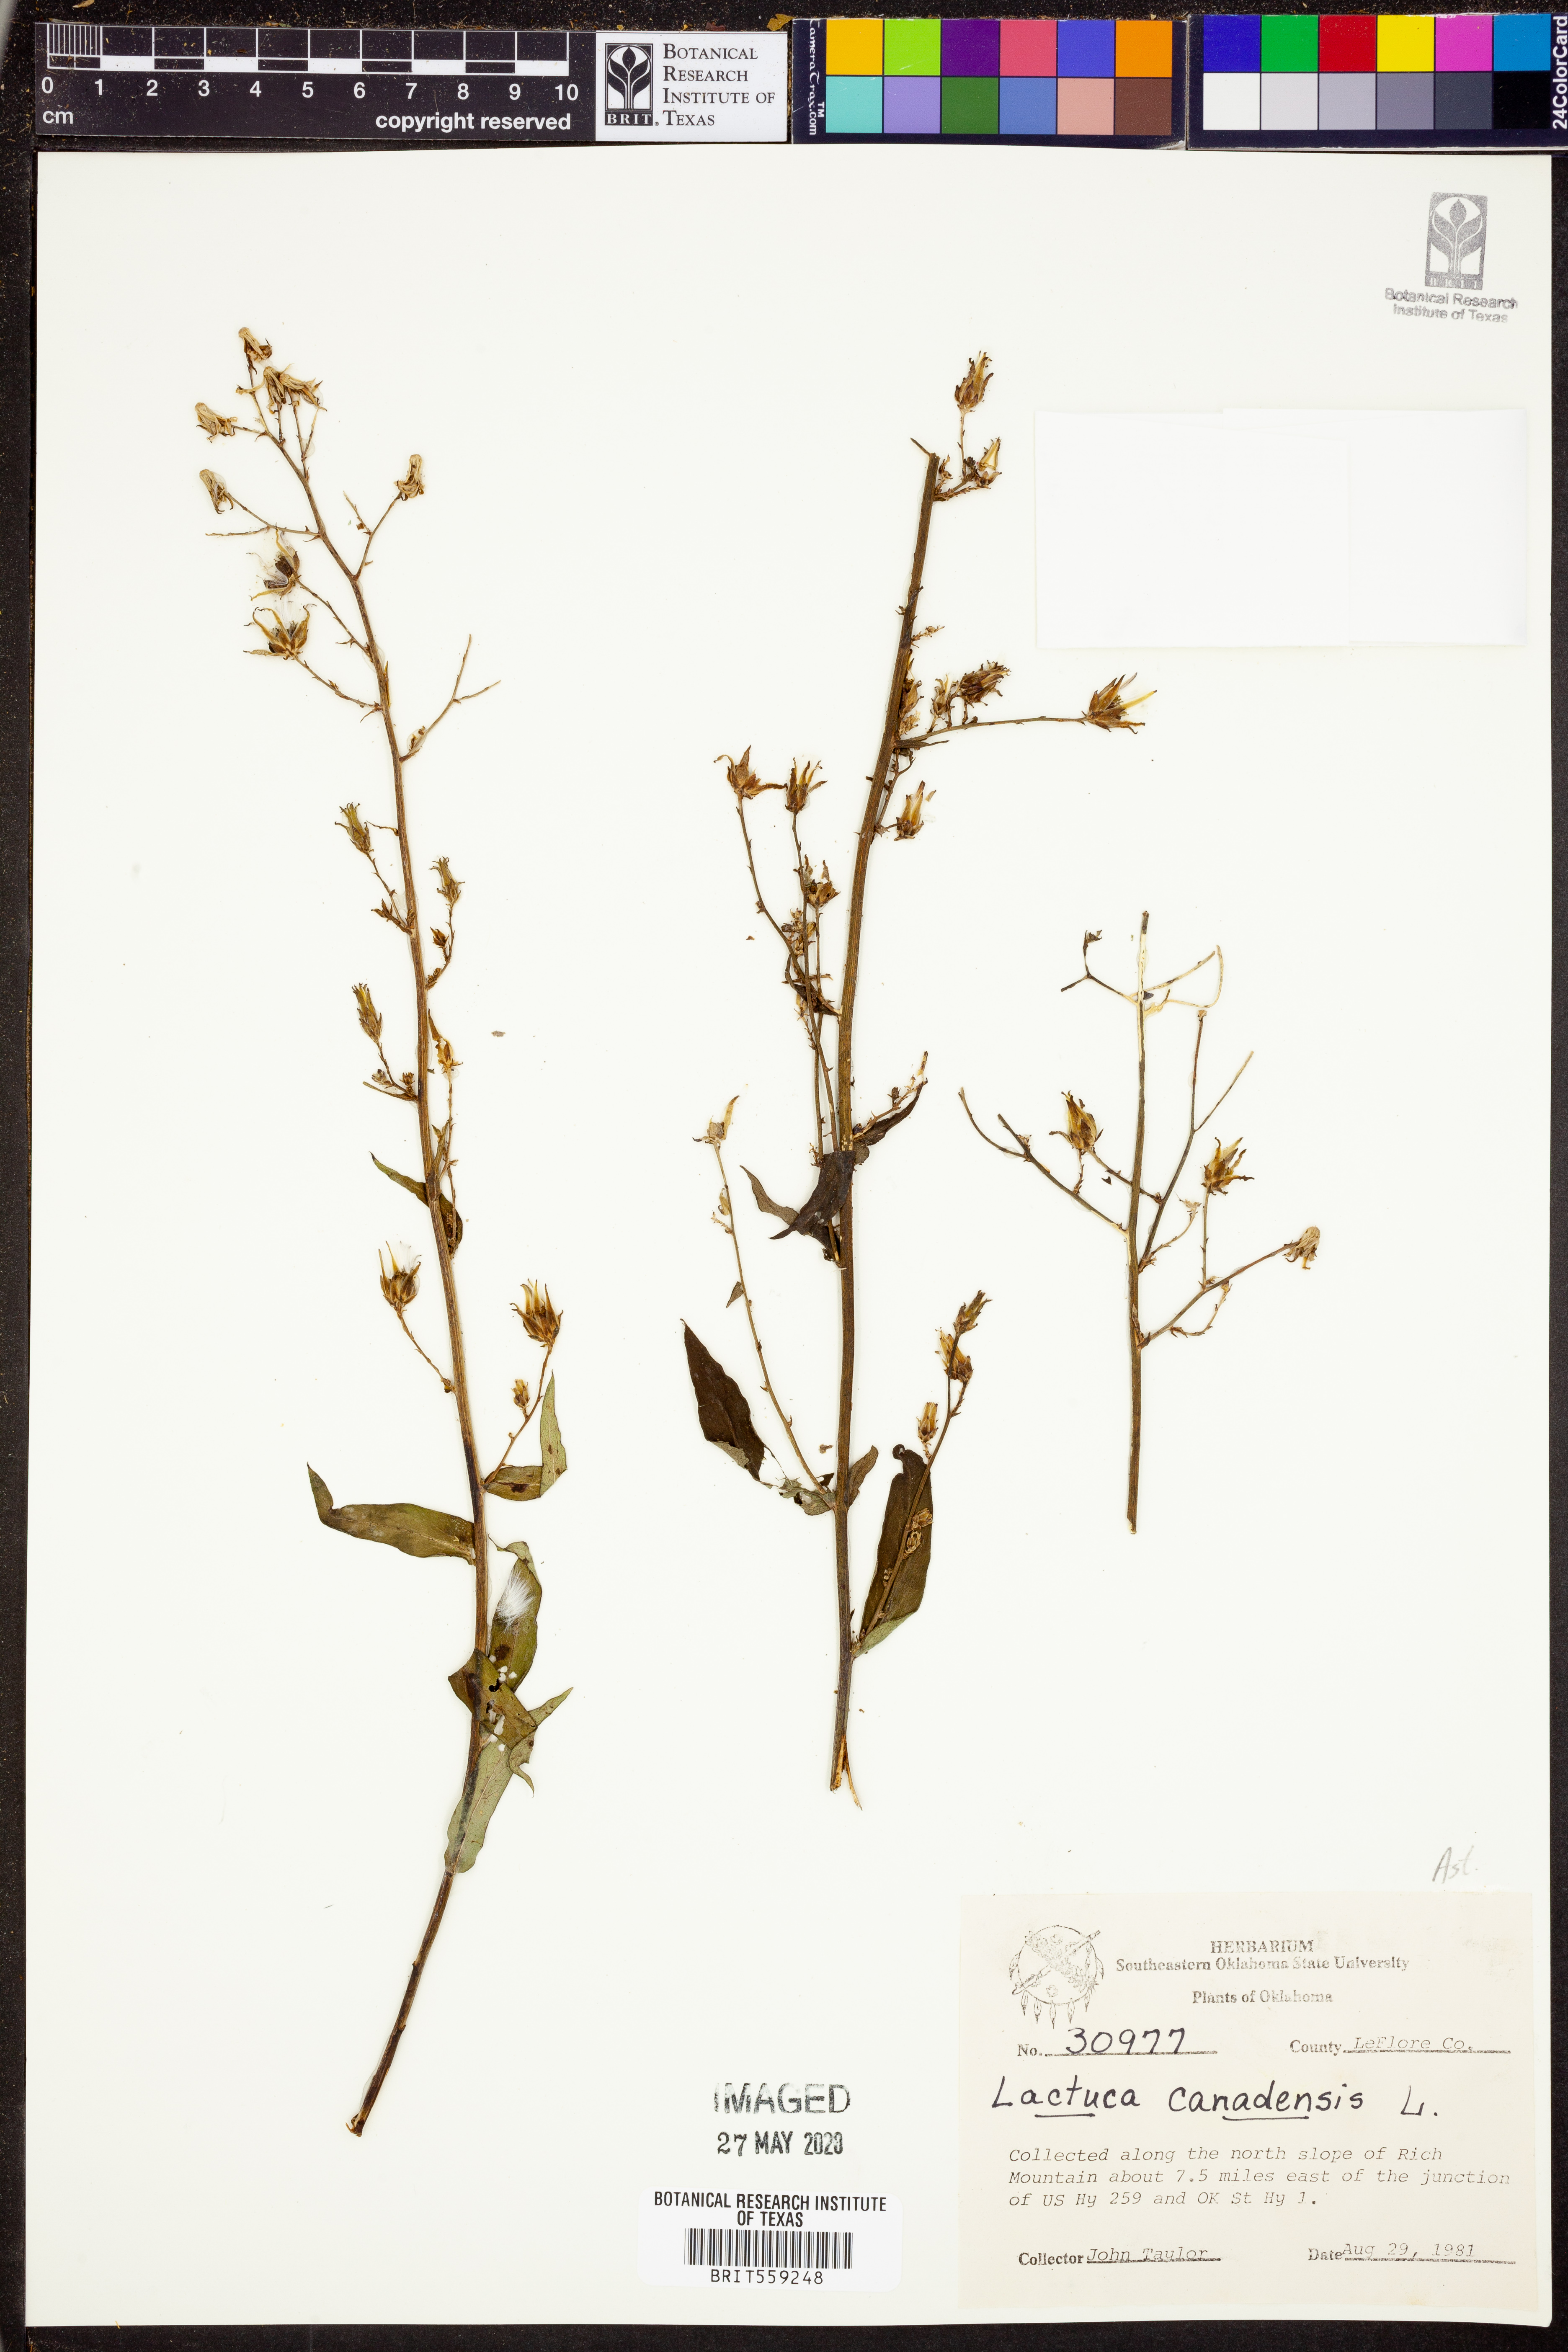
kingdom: Plantae
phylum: Tracheophyta
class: Magnoliopsida
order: Asterales
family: Asteraceae
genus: Lactuca
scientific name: Lactuca canadensis
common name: Canada lettuce
